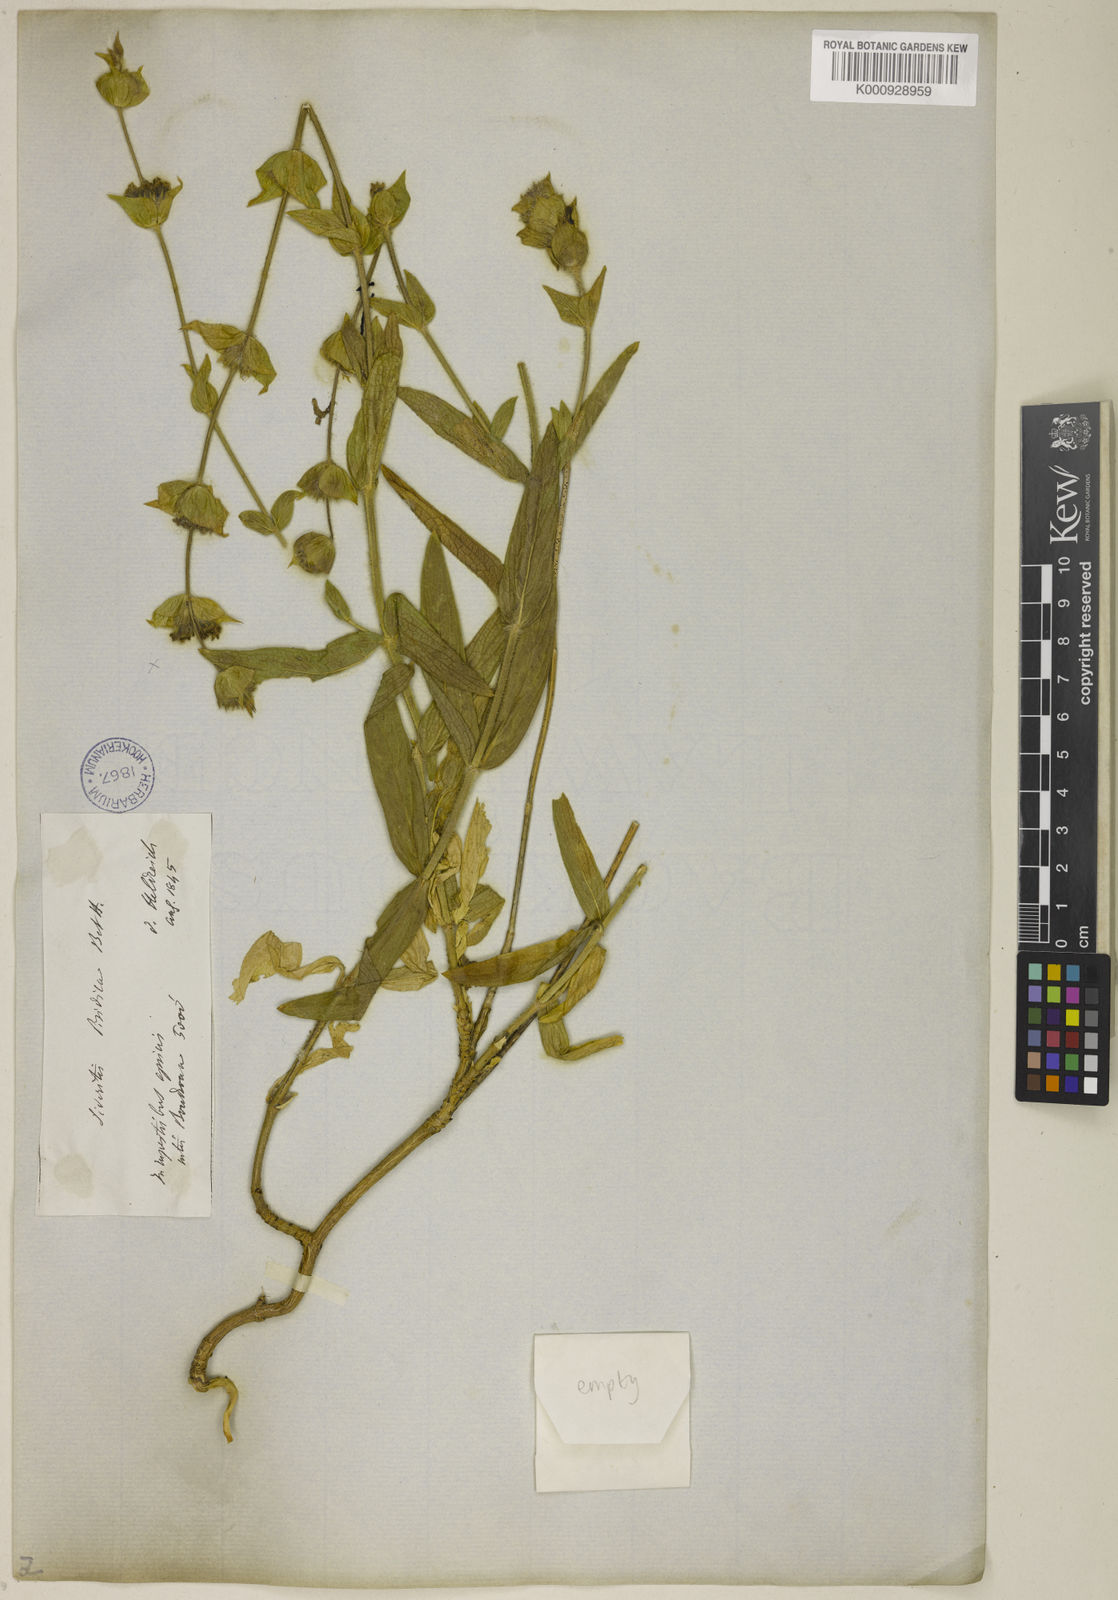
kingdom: Plantae
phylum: Tracheophyta
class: Magnoliopsida
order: Lamiales
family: Lamiaceae
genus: Sideritis
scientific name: Sideritis pisidica
